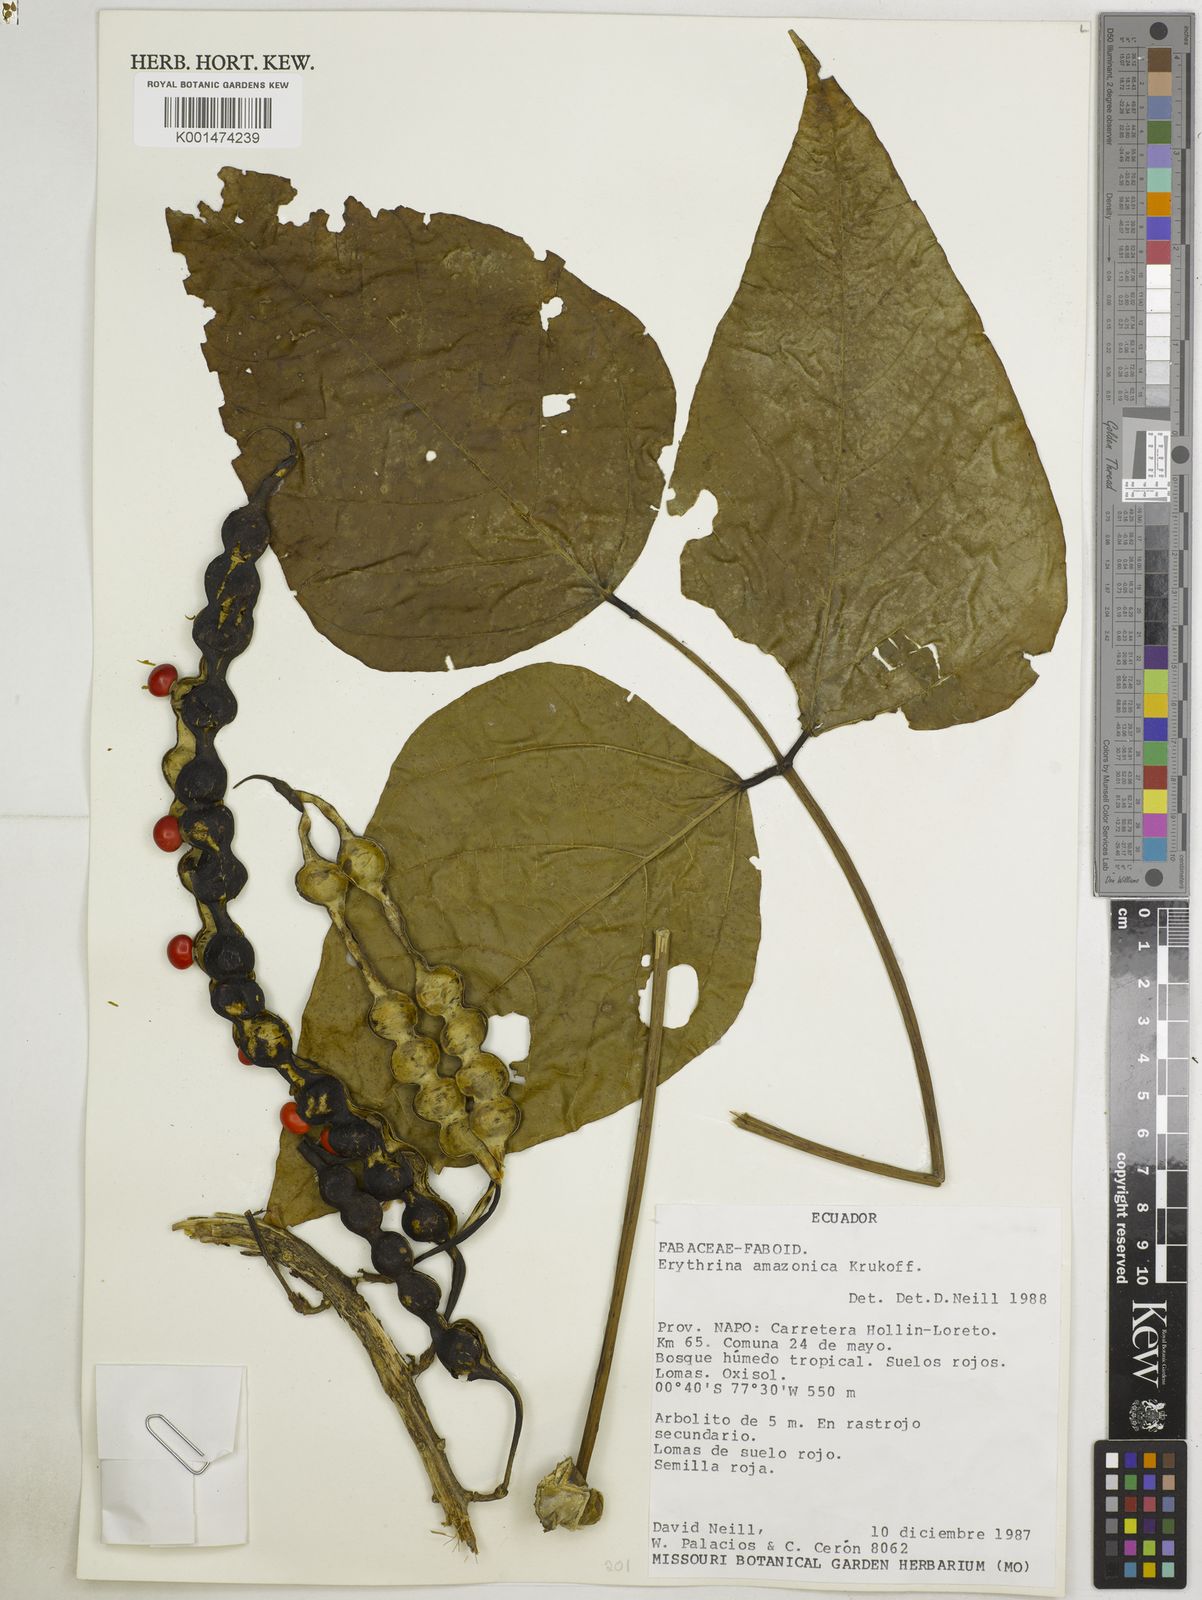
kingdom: Plantae
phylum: Tracheophyta
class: Magnoliopsida
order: Fabales
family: Fabaceae
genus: Erythrina
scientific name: Erythrina amazonica
